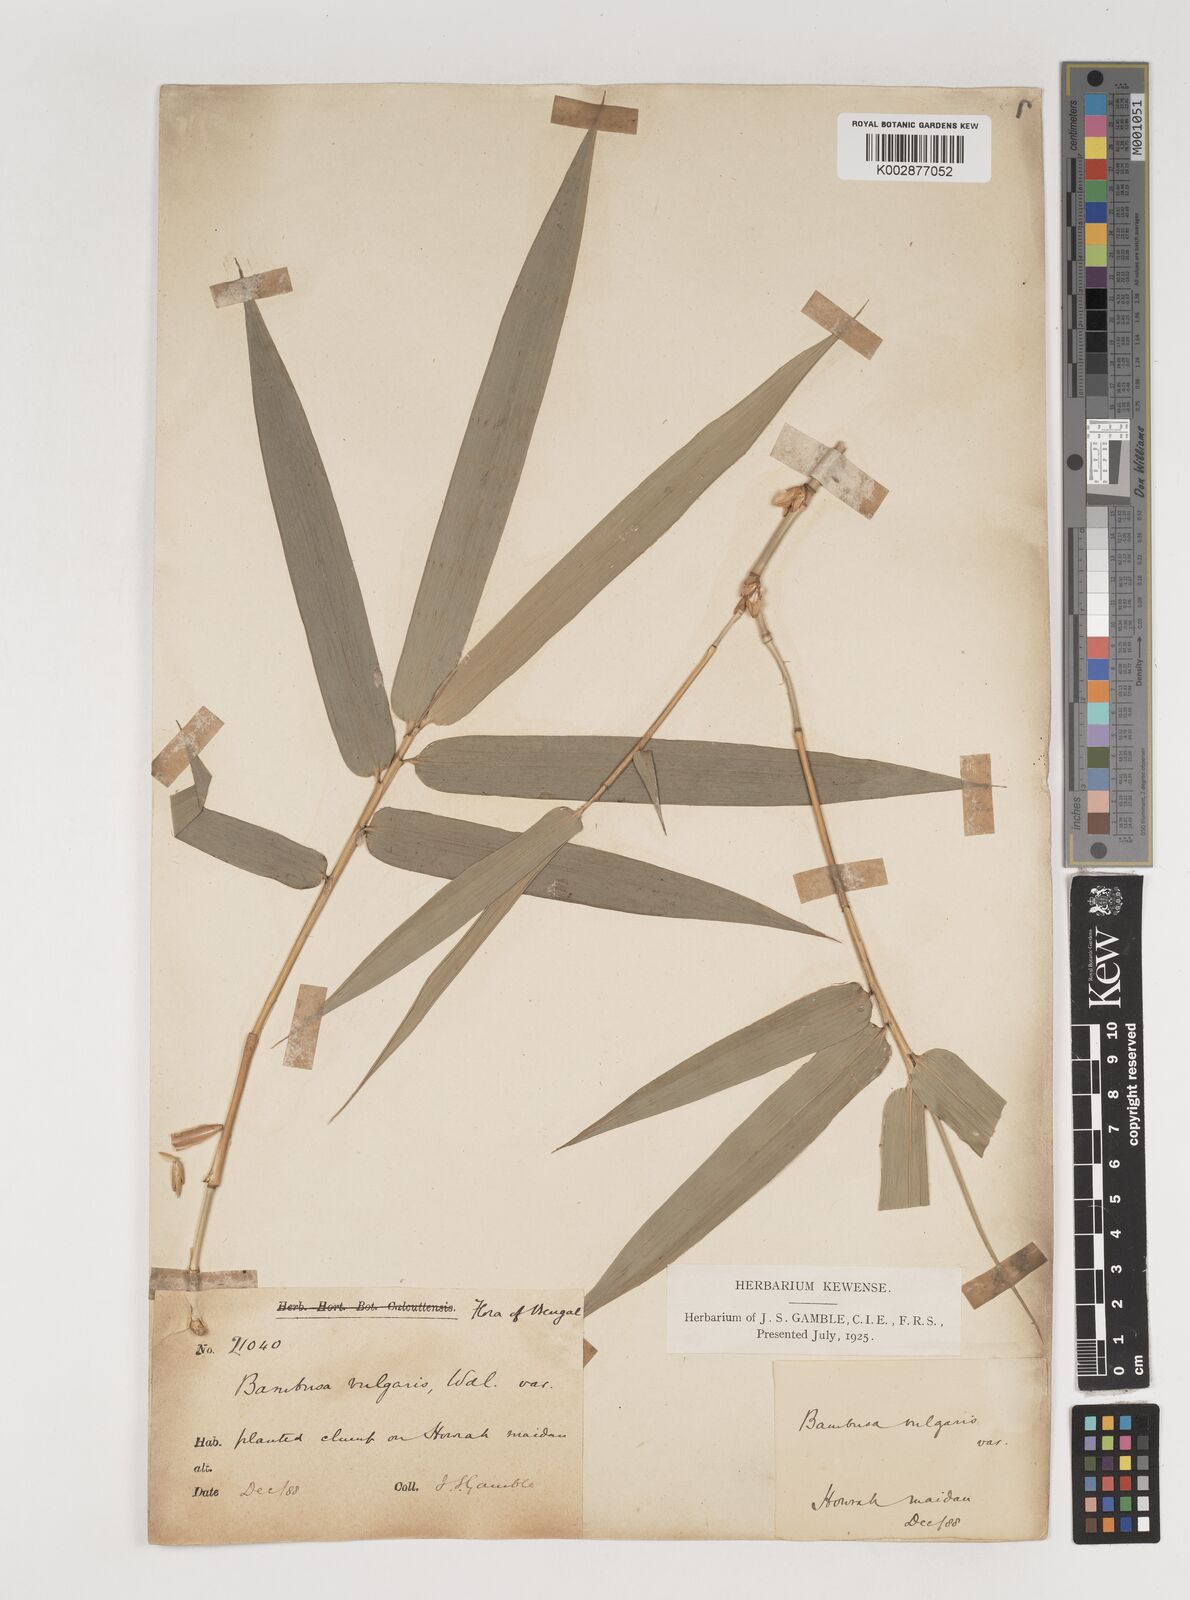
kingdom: Plantae
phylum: Tracheophyta
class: Liliopsida
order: Poales
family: Poaceae
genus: Bambusa
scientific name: Bambusa vulgaris
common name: Common bamboo
